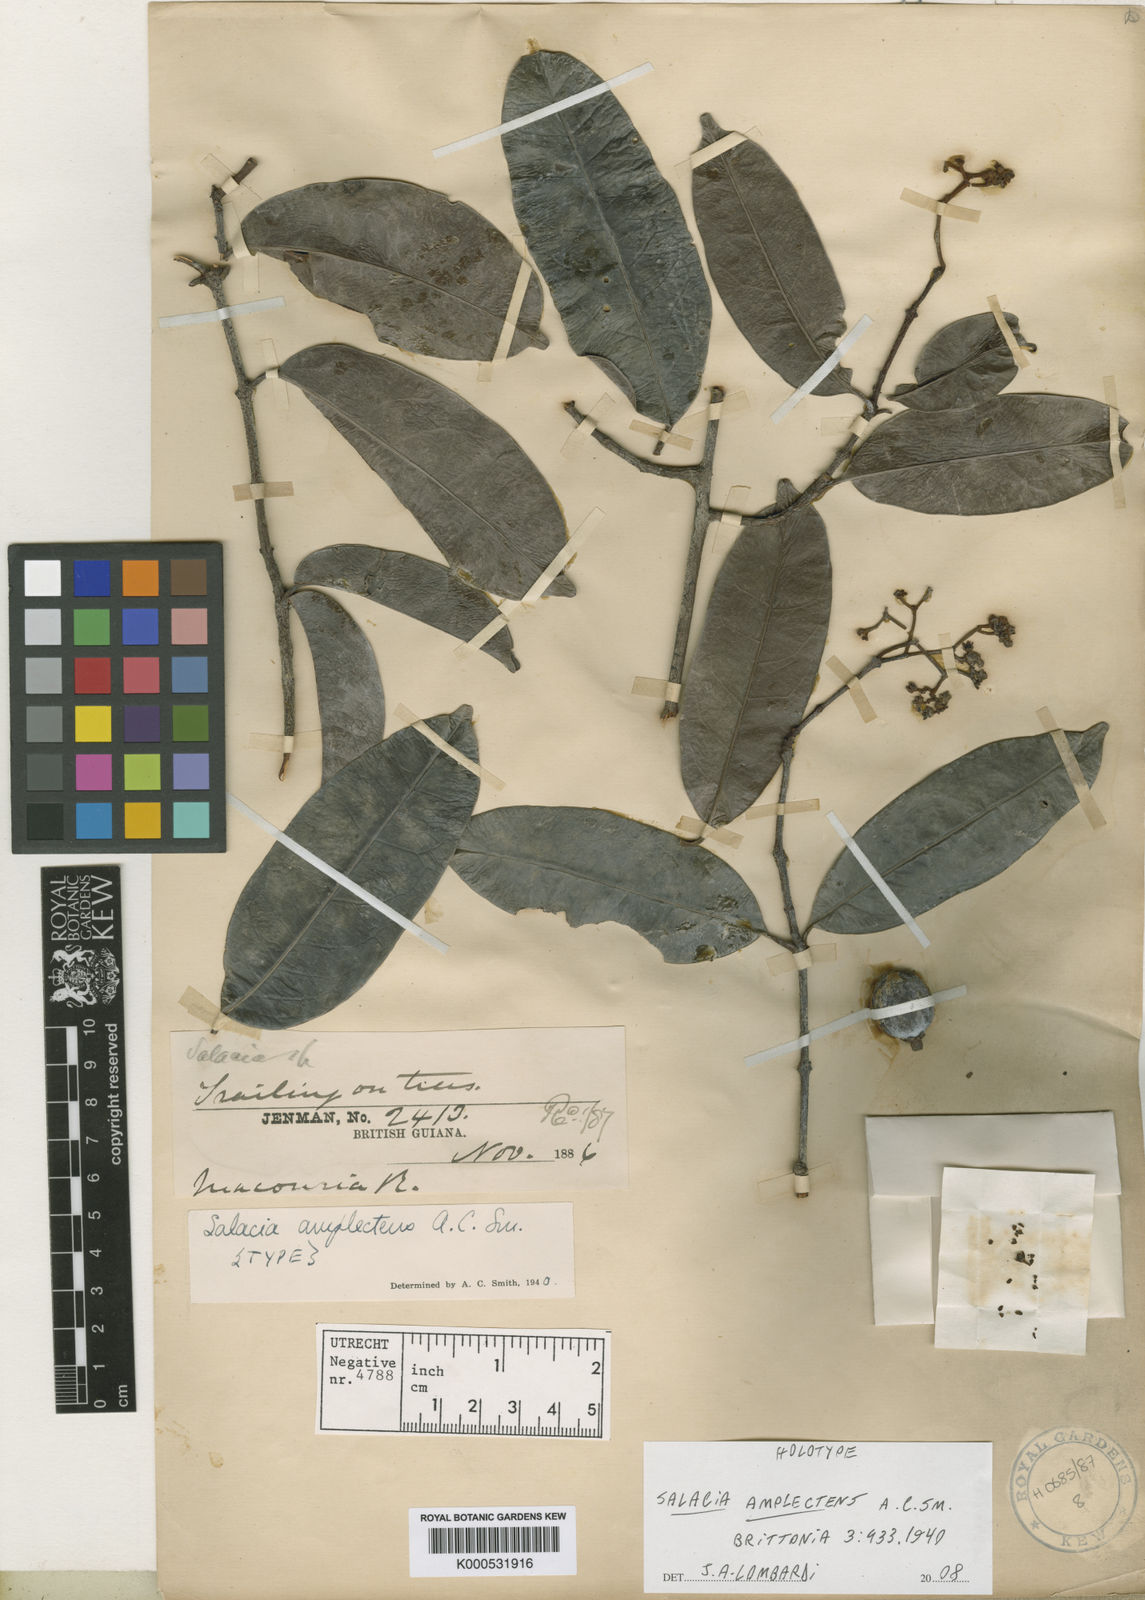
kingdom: Plantae
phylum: Tracheophyta
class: Magnoliopsida
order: Celastrales
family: Celastraceae
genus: Salacia
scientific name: Salacia amplectens
